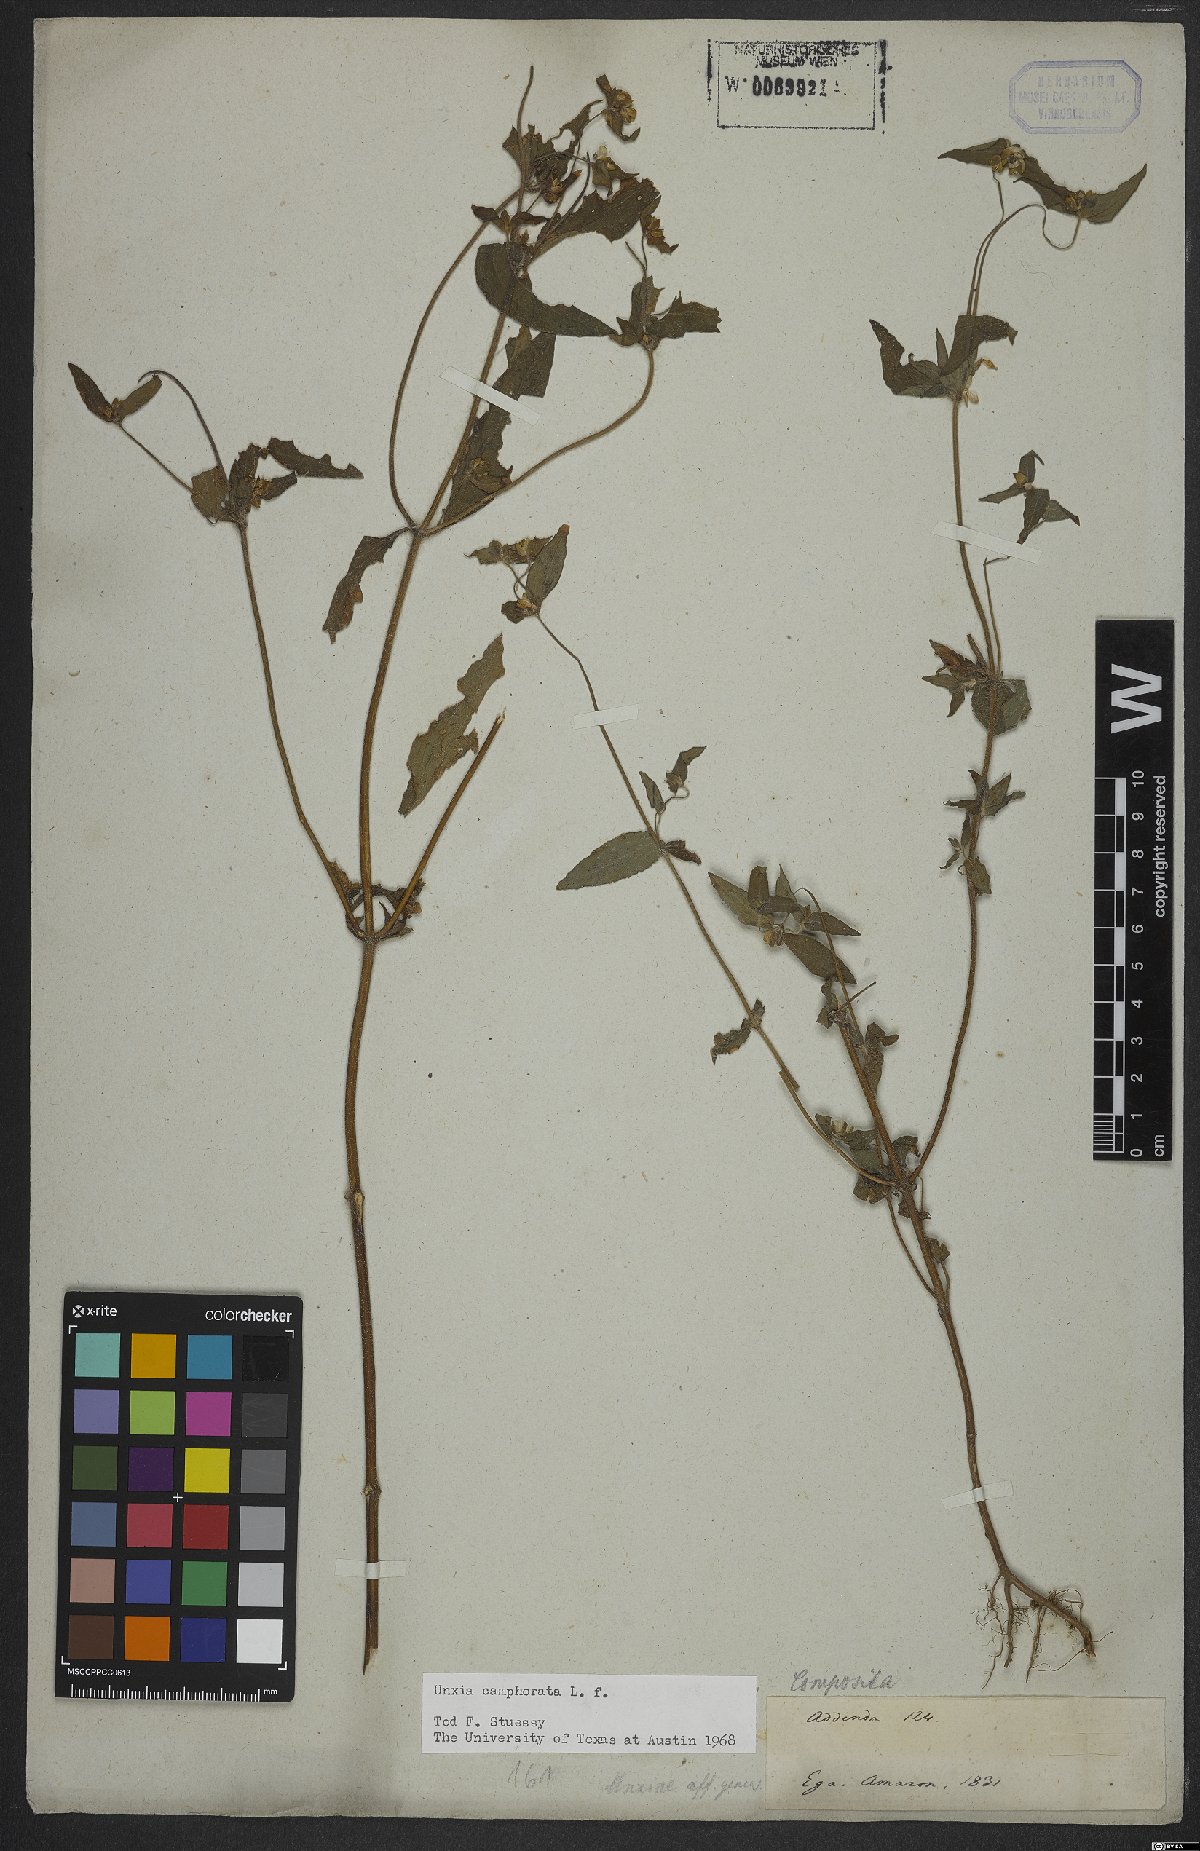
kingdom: Plantae
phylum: Tracheophyta
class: Magnoliopsida
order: Asterales
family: Asteraceae
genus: Unxia
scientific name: Unxia camphorata
